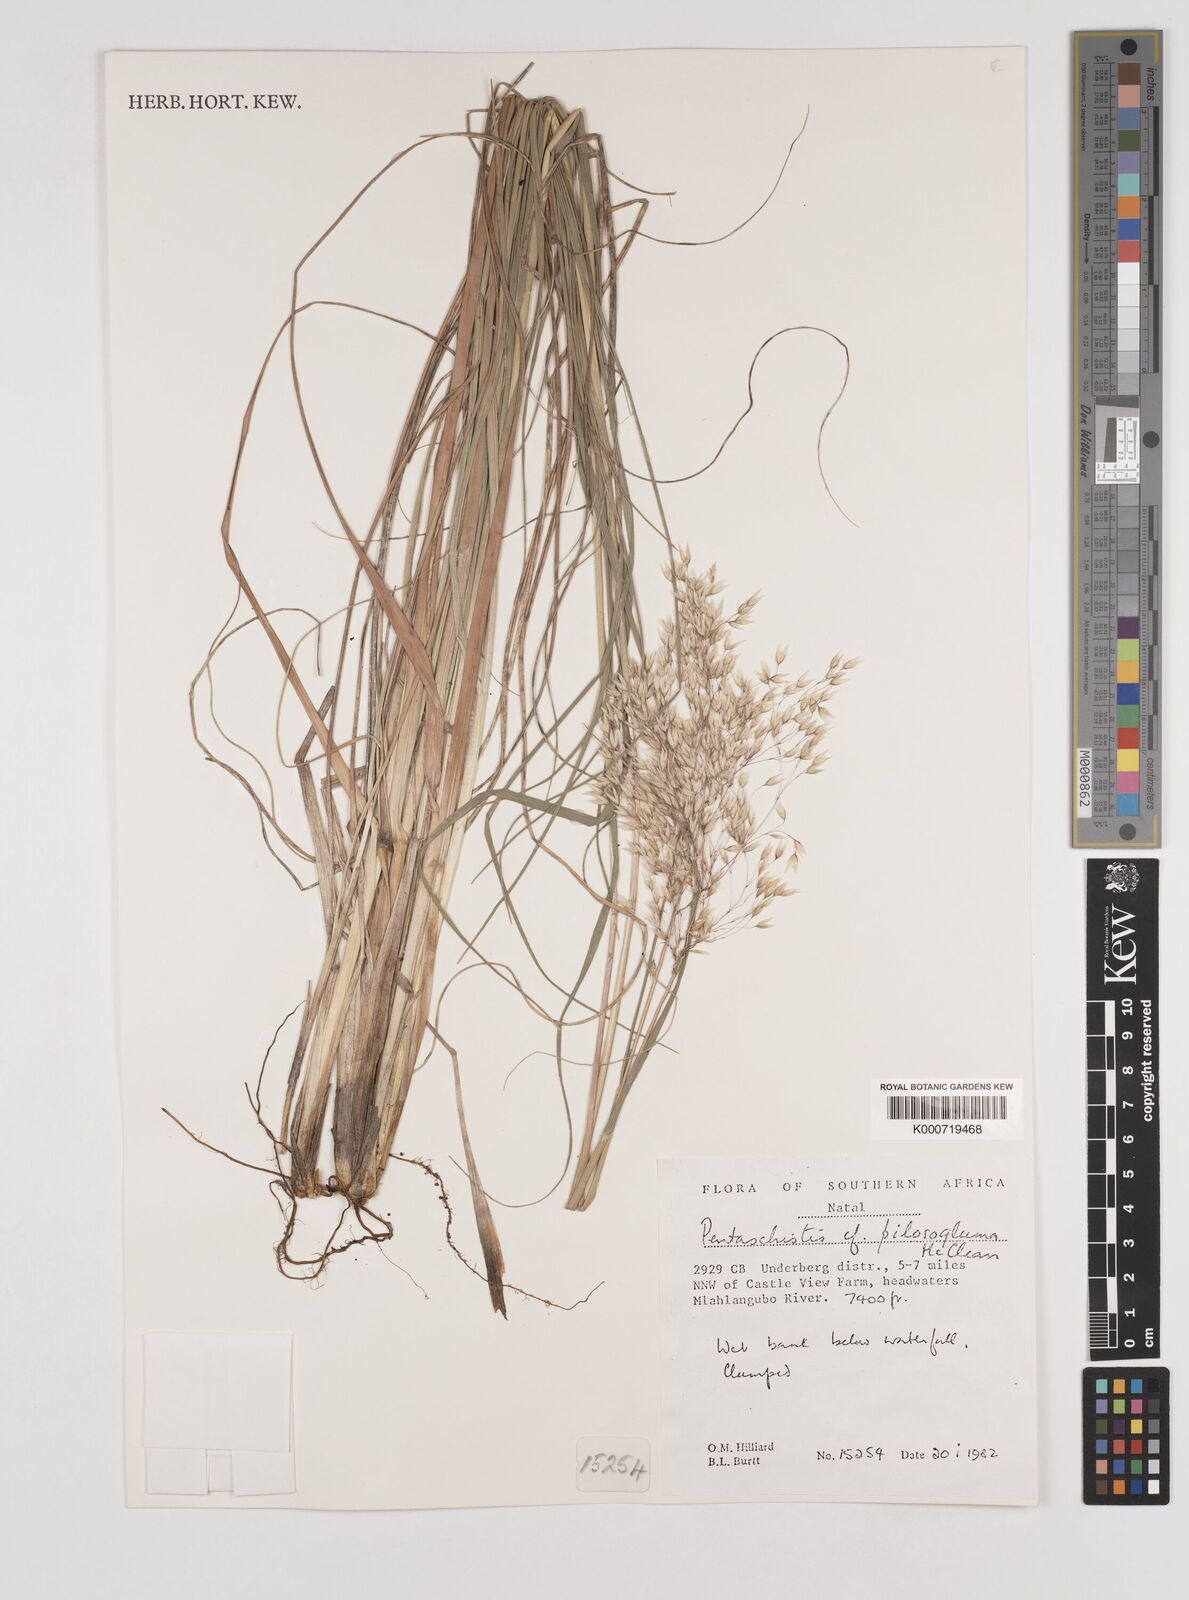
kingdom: Plantae
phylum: Tracheophyta
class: Liliopsida
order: Poales
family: Poaceae
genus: Pentameris
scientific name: Pentameris aurea
